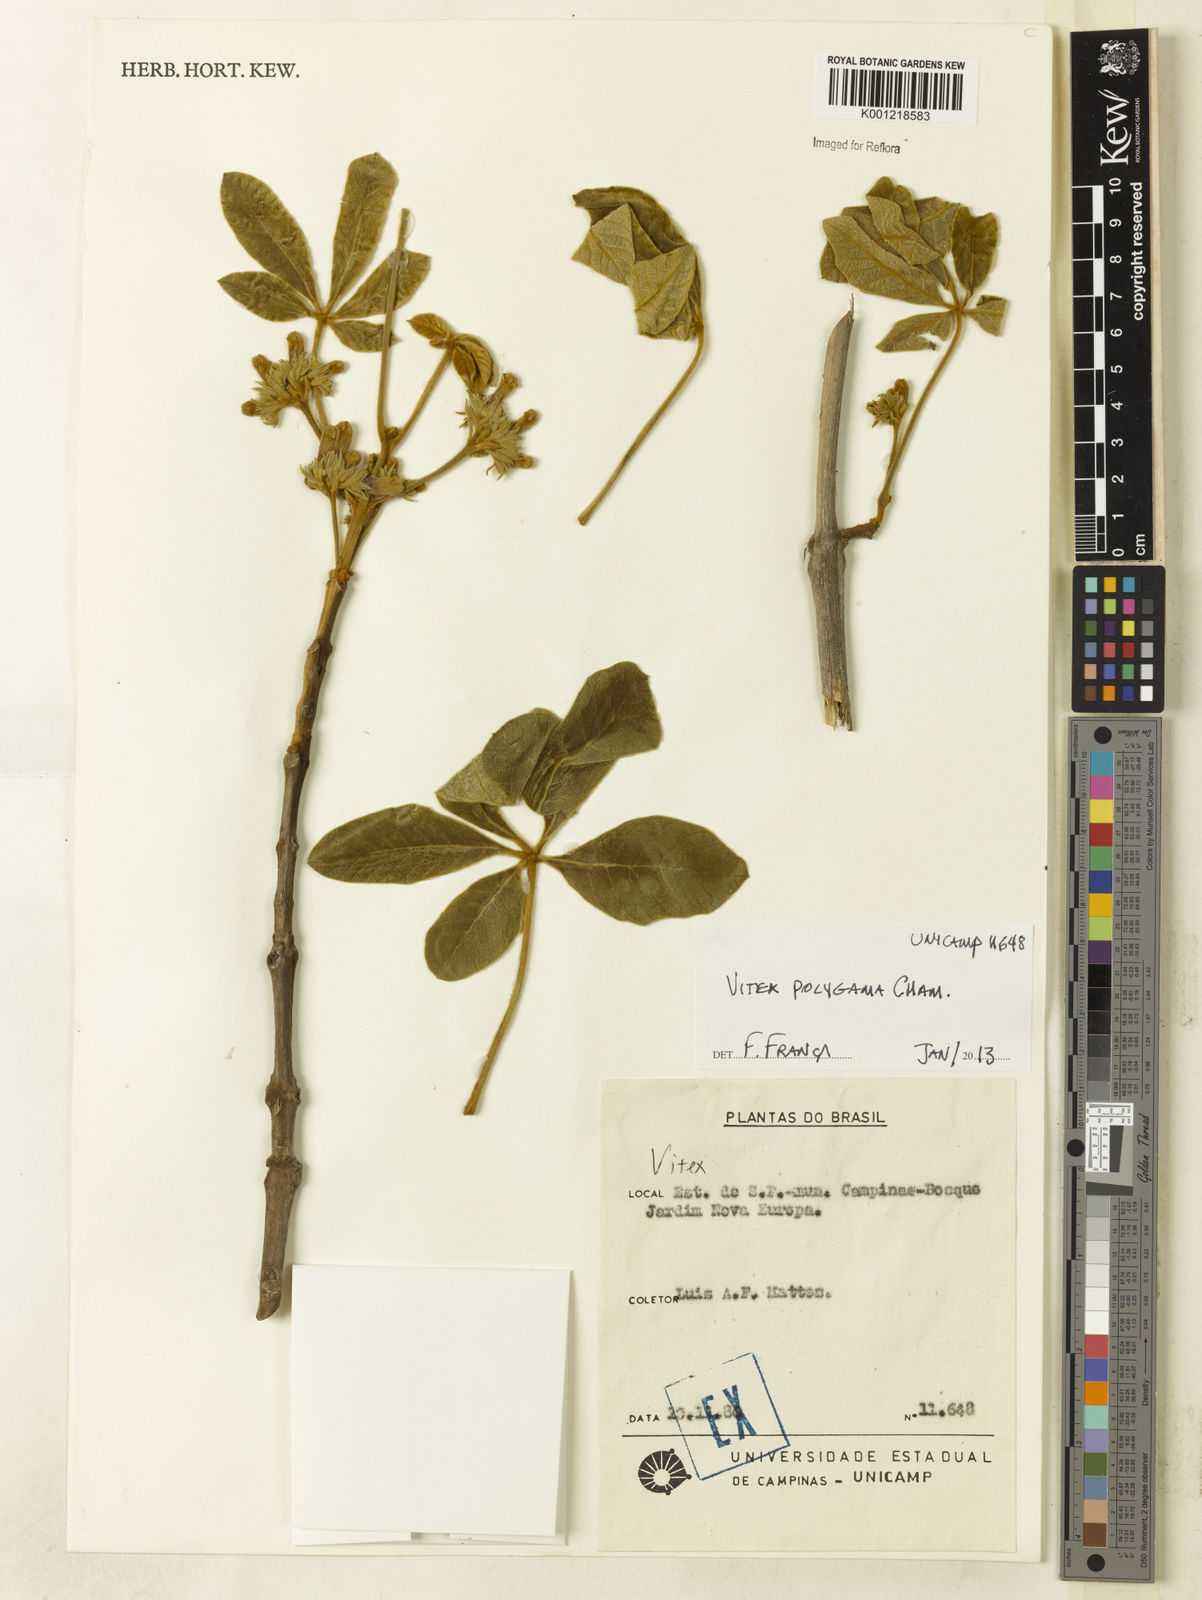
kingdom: Plantae
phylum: Tracheophyta
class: Magnoliopsida
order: Lamiales
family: Lamiaceae
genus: Vitex
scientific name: Vitex polygama
